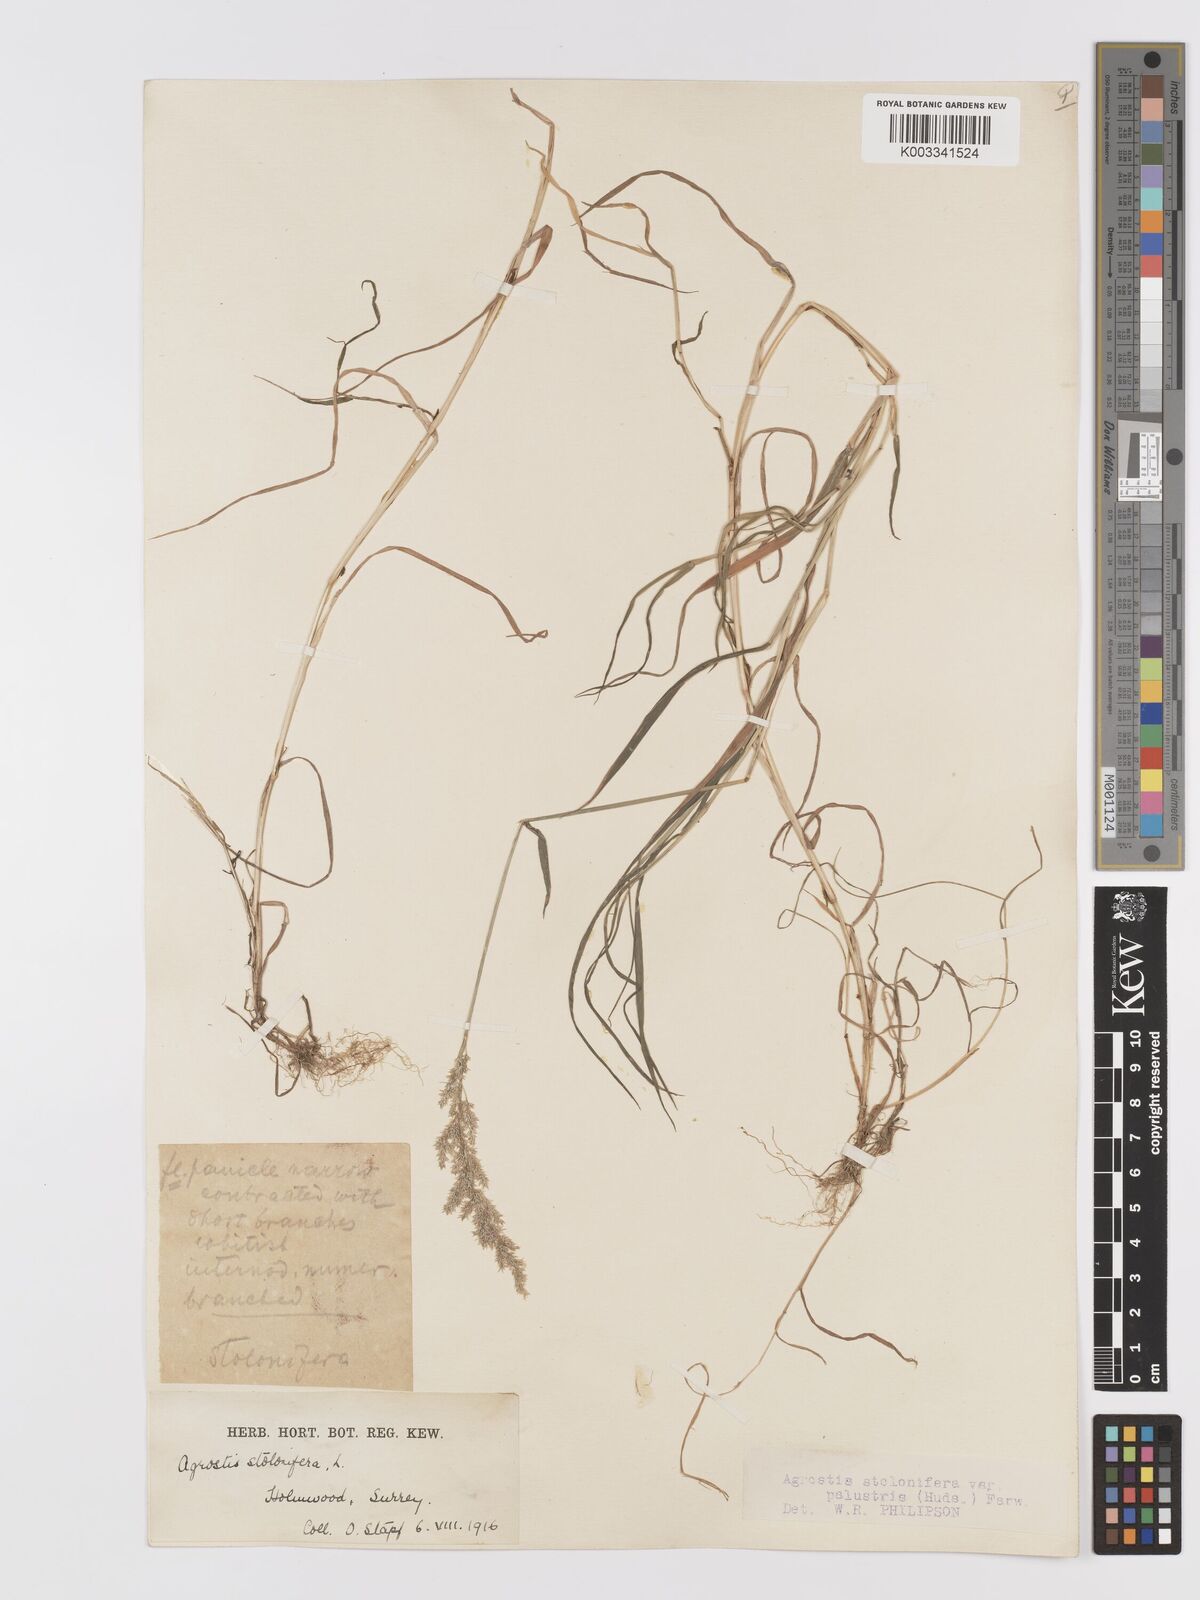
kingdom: Plantae
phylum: Tracheophyta
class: Liliopsida
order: Poales
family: Poaceae
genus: Agrostis
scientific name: Agrostis stolonifera
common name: Creeping bentgrass
